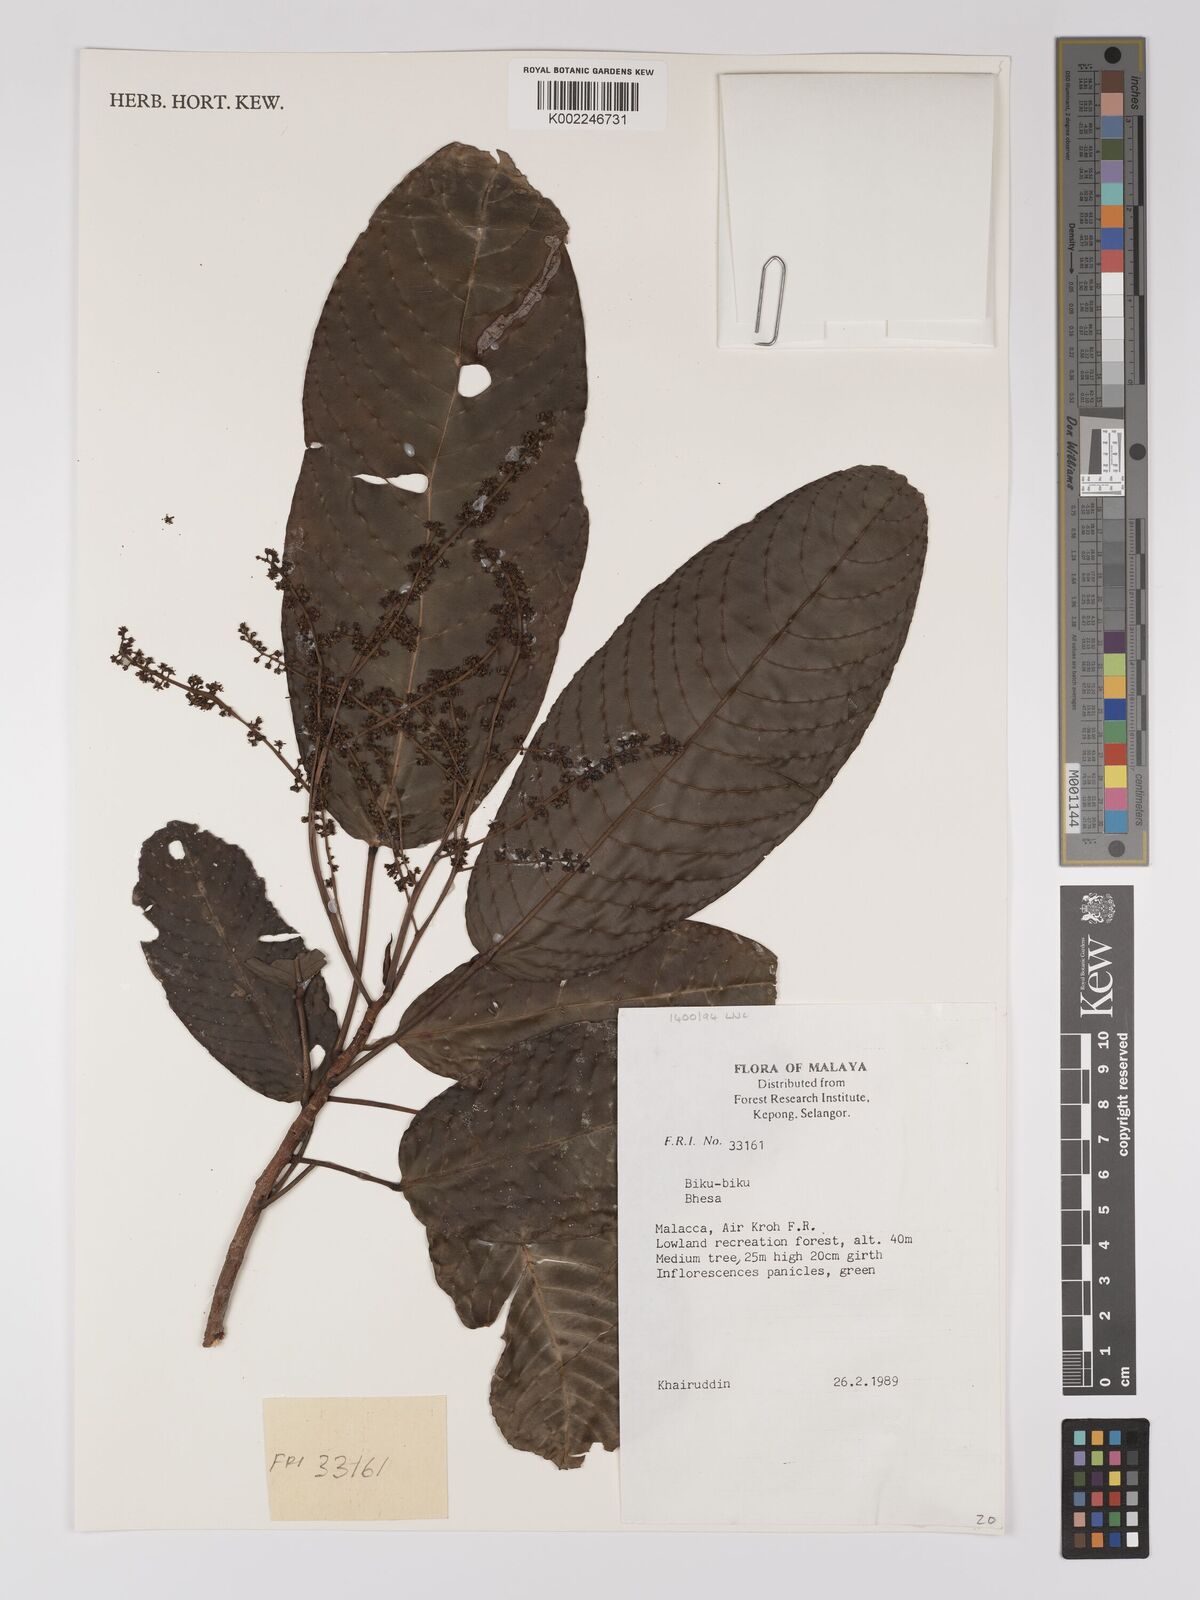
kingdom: Plantae
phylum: Tracheophyta
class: Magnoliopsida
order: Malpighiales
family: Centroplacaceae
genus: Bhesa
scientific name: Bhesa
